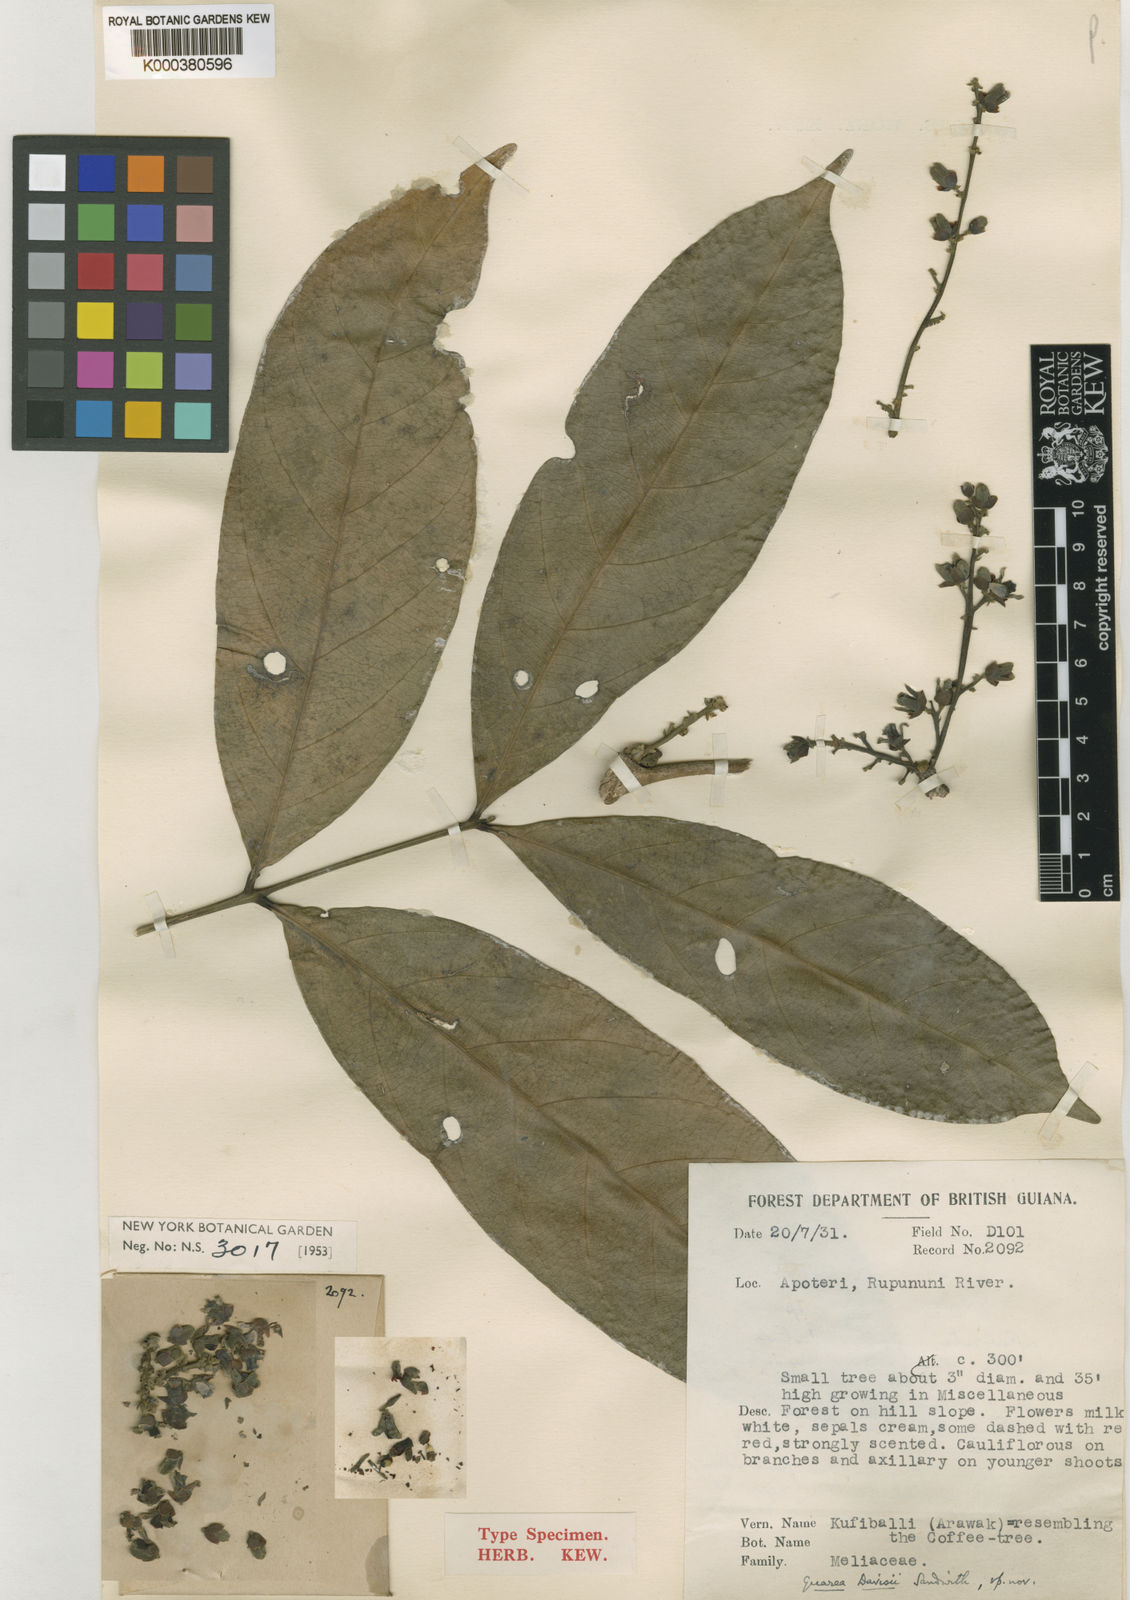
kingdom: Plantae
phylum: Tracheophyta
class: Magnoliopsida
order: Sapindales
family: Meliaceae
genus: Guarea
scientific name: Guarea pubescens
